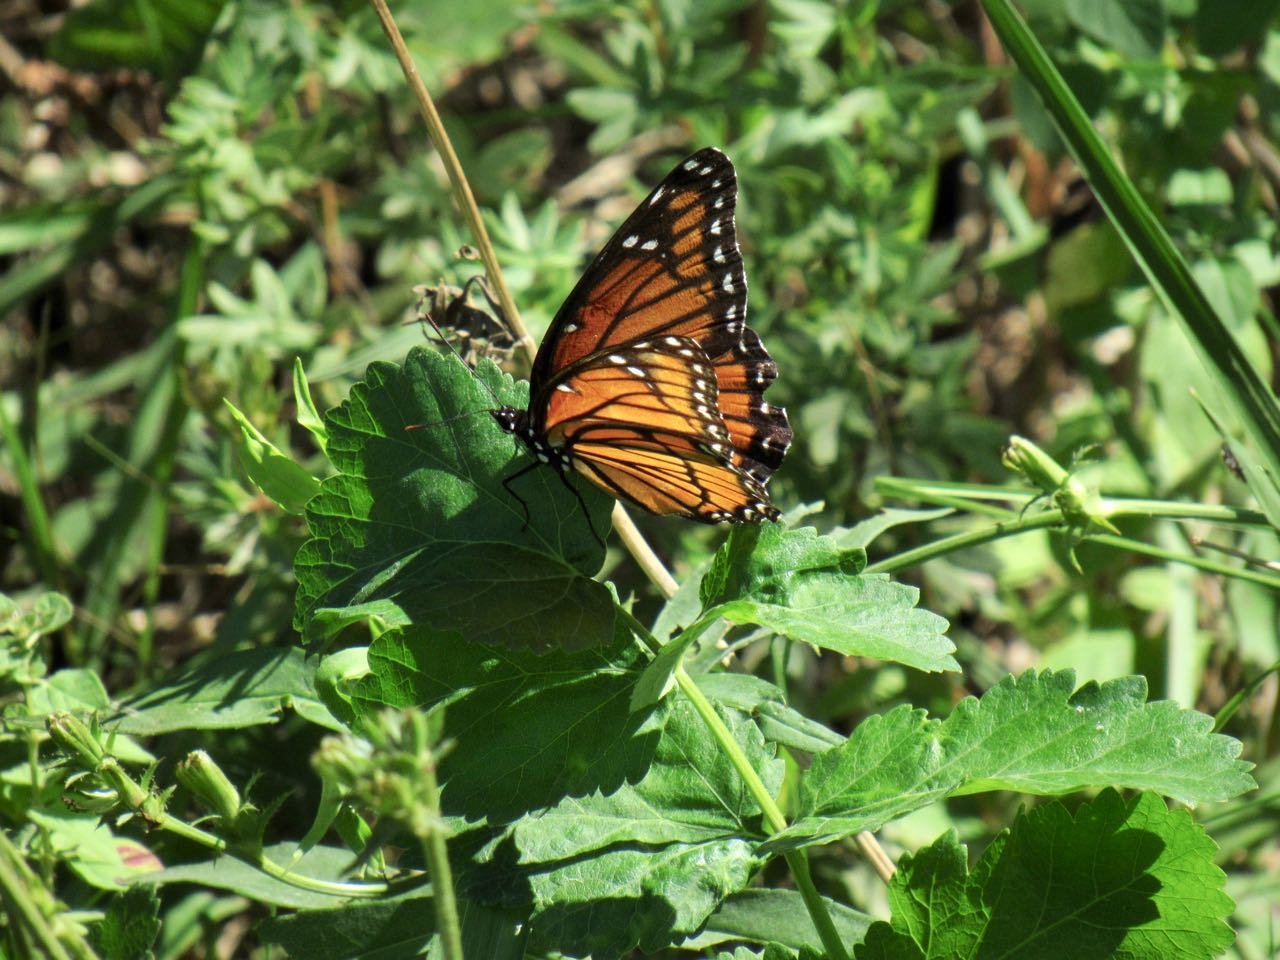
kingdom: Animalia
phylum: Arthropoda
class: Insecta
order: Lepidoptera
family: Nymphalidae
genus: Limenitis
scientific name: Limenitis archippus
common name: Viceroy
